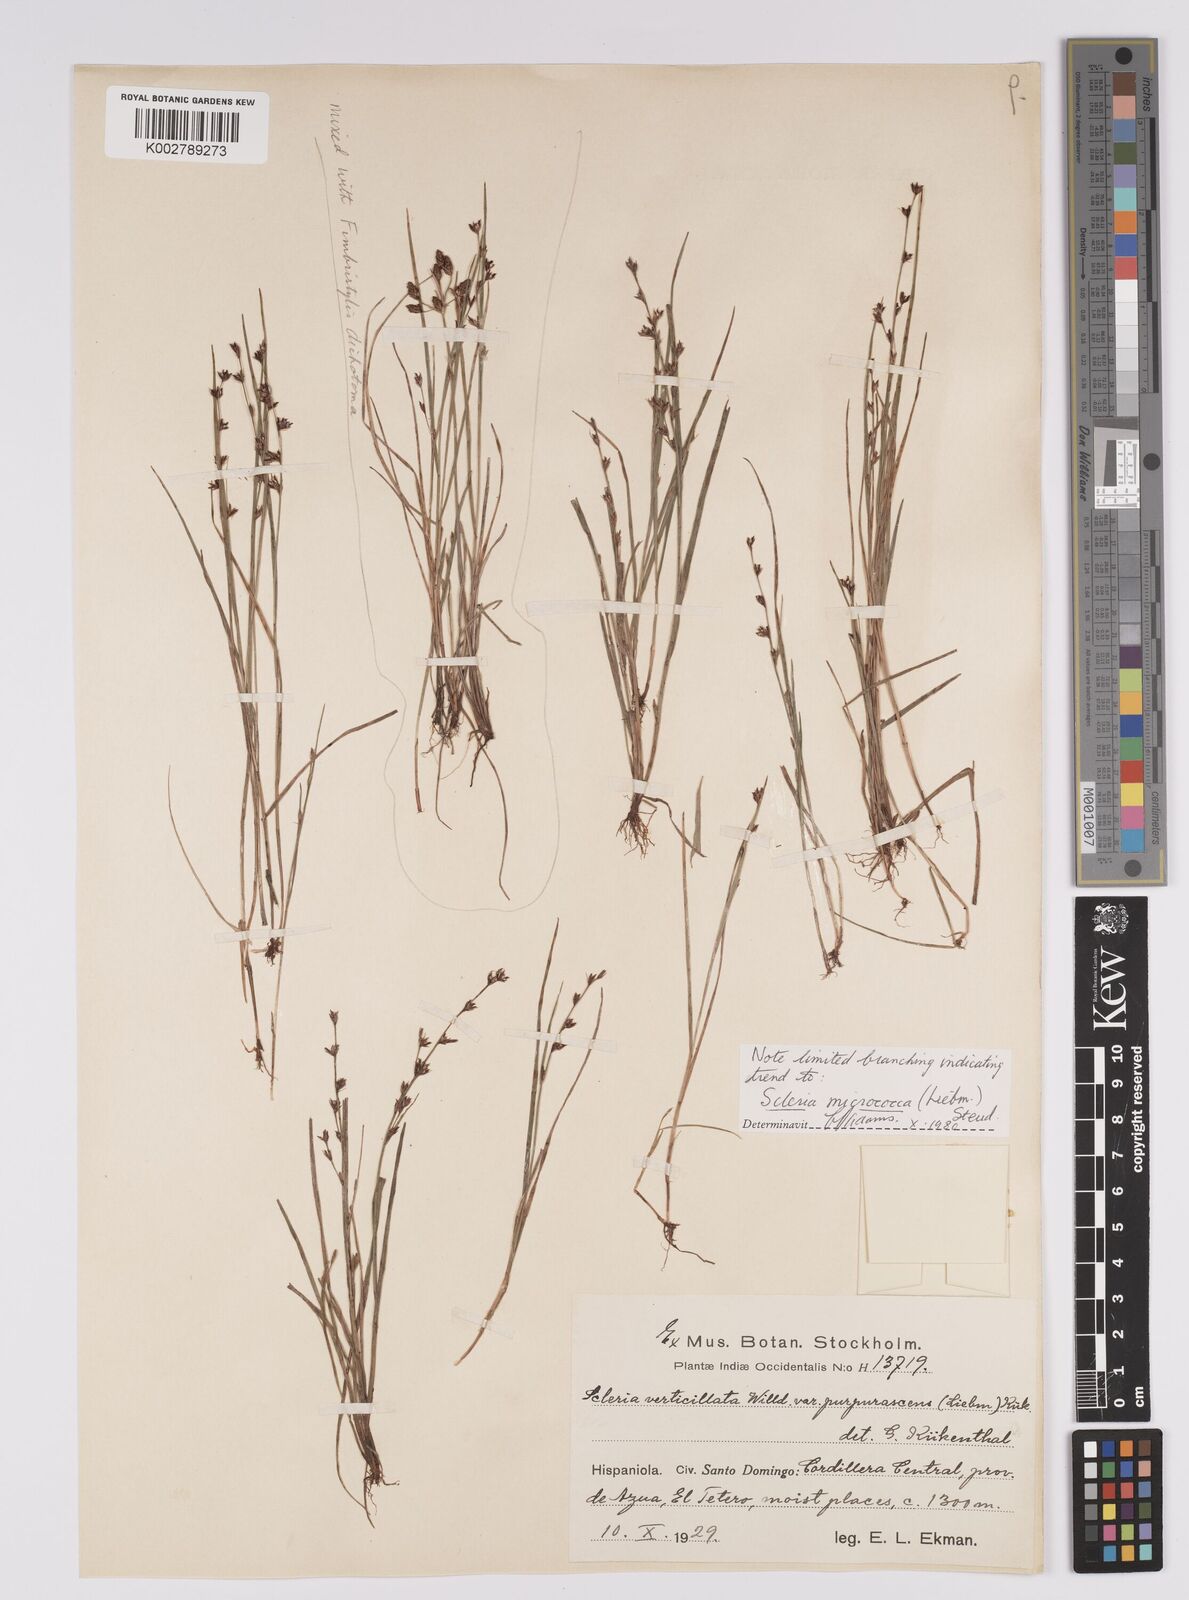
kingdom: Plantae
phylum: Tracheophyta
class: Liliopsida
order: Poales
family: Cyperaceae
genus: Scleria
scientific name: Scleria verticillata
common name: Low nutrush
